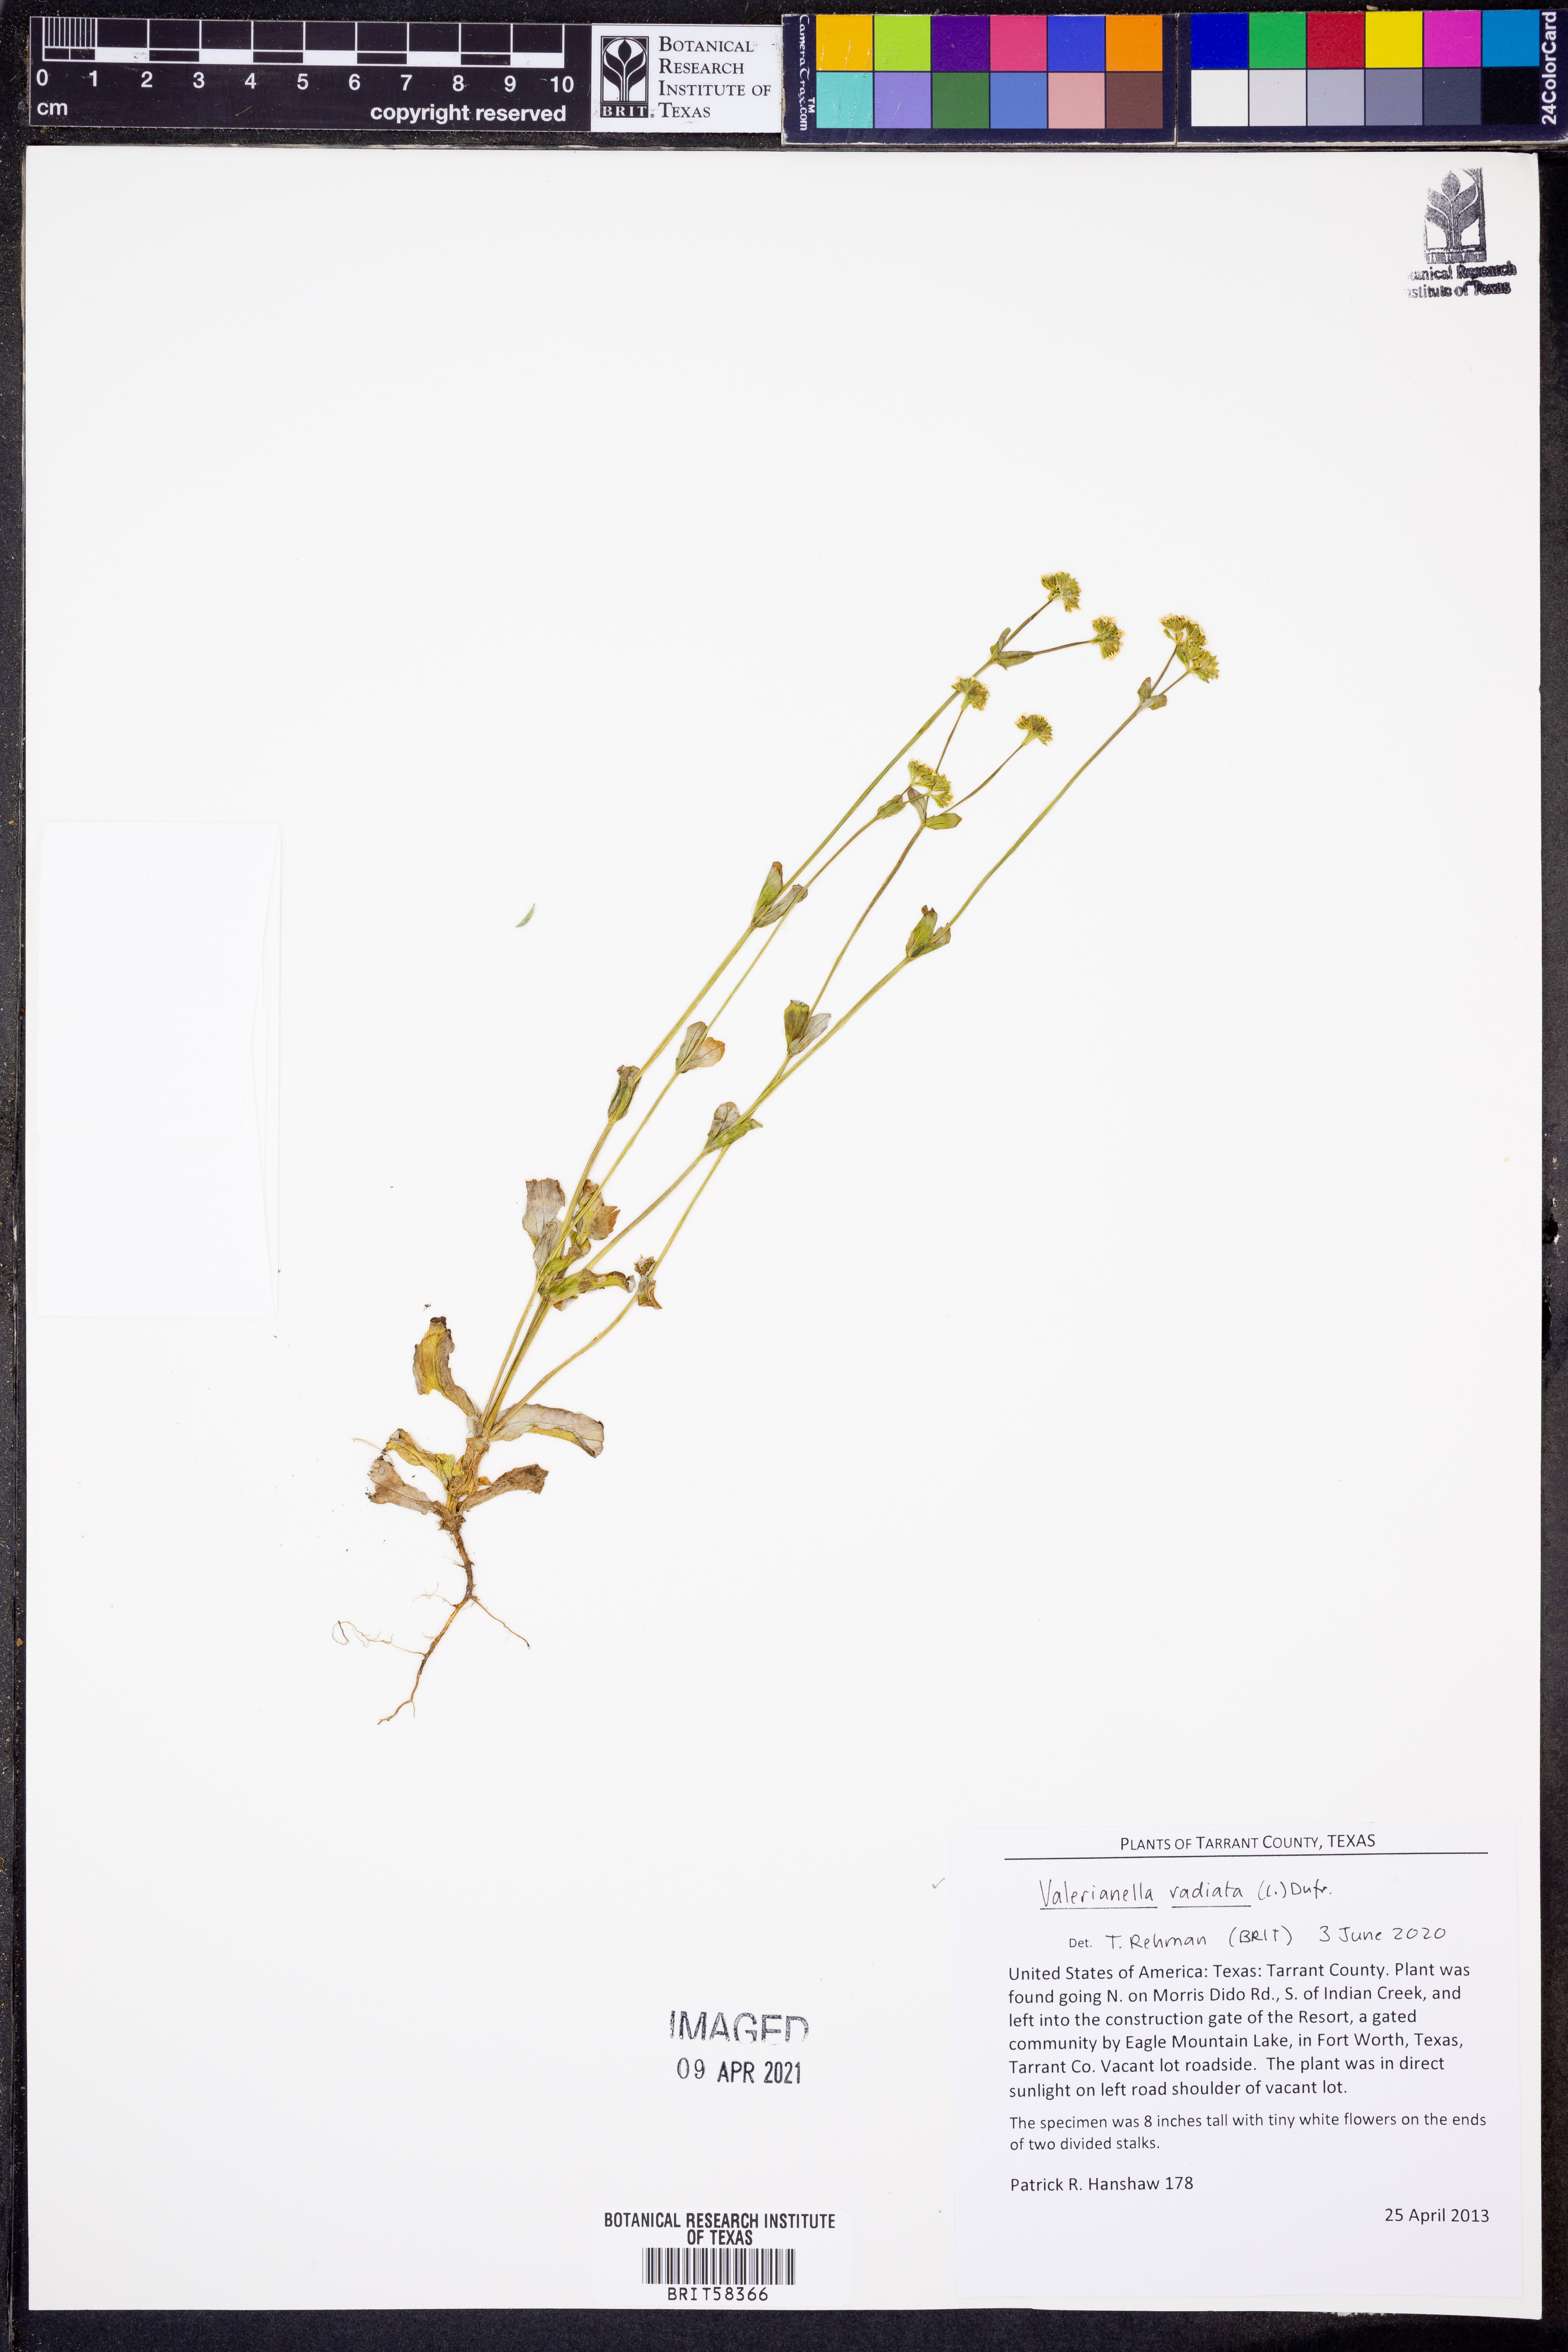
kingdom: Plantae
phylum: Tracheophyta
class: Magnoliopsida
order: Dipsacales
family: Caprifoliaceae
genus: Valerianella
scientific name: Valerianella radiata
